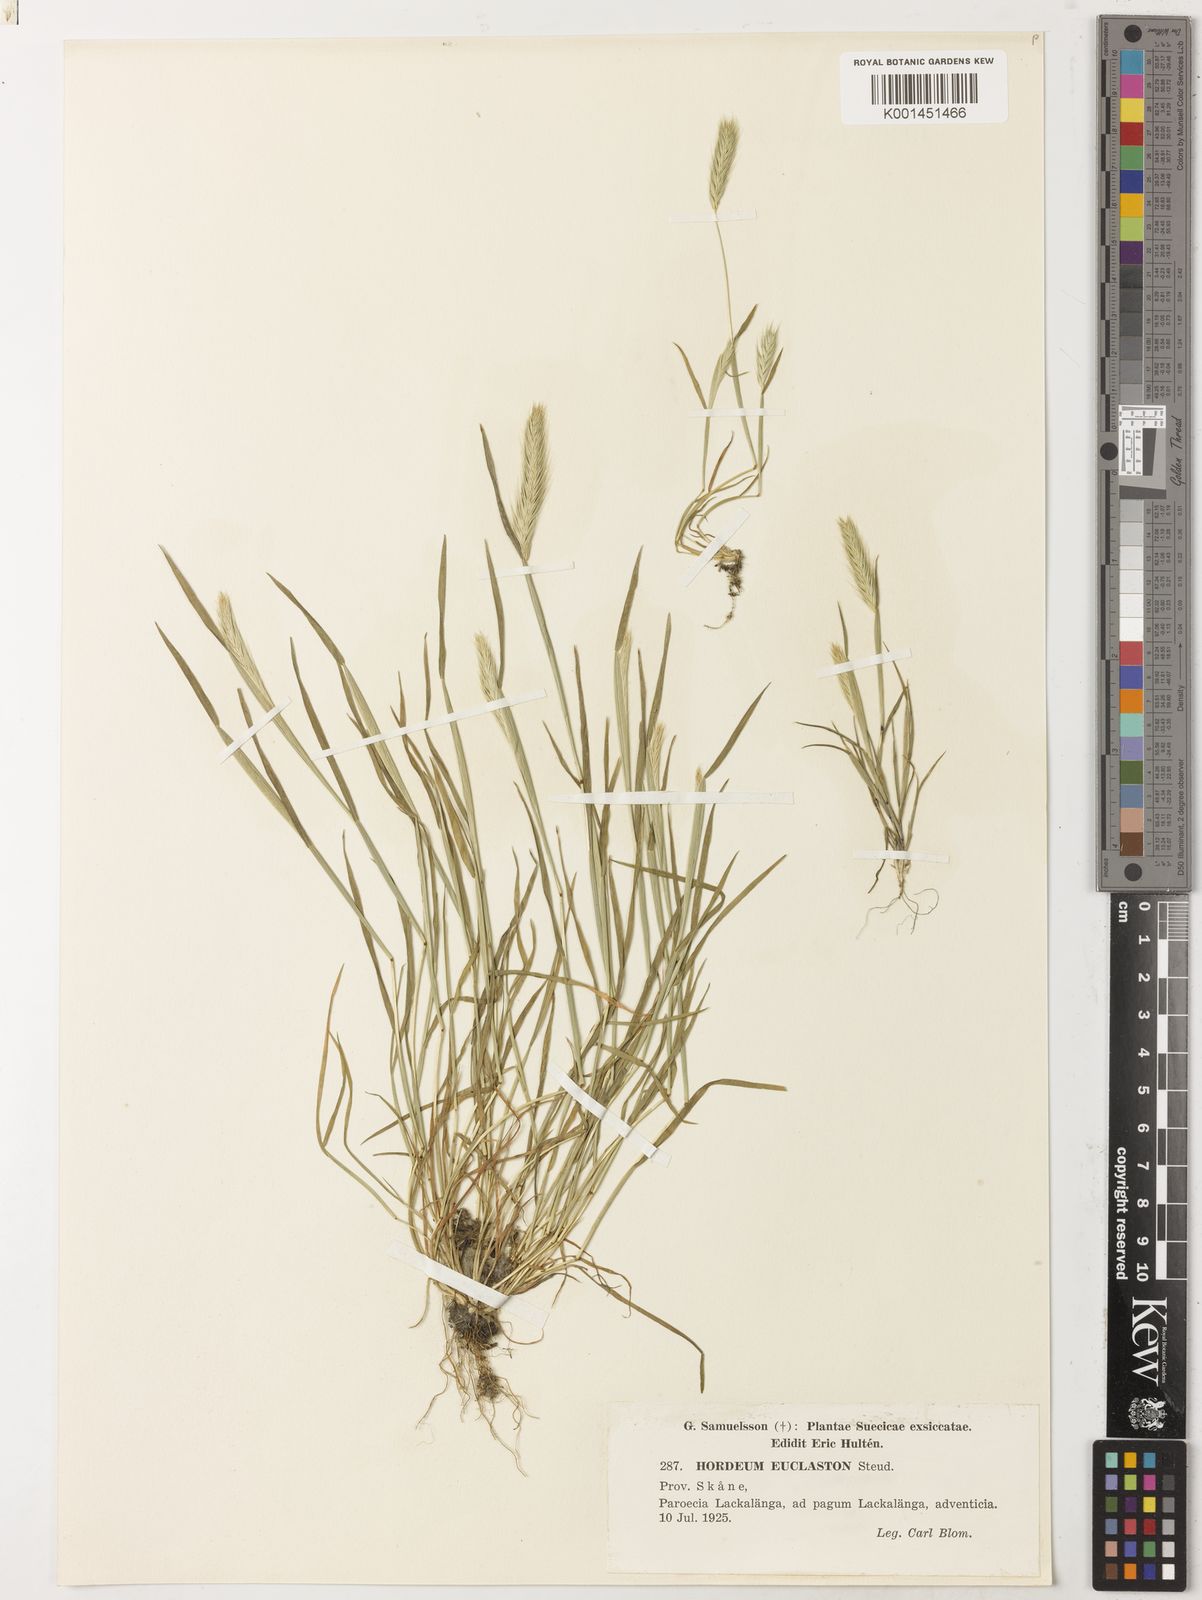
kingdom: Plantae
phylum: Tracheophyta
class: Liliopsida
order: Poales
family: Poaceae
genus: Hordeum
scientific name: Hordeum euclaston
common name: Argentine barley
